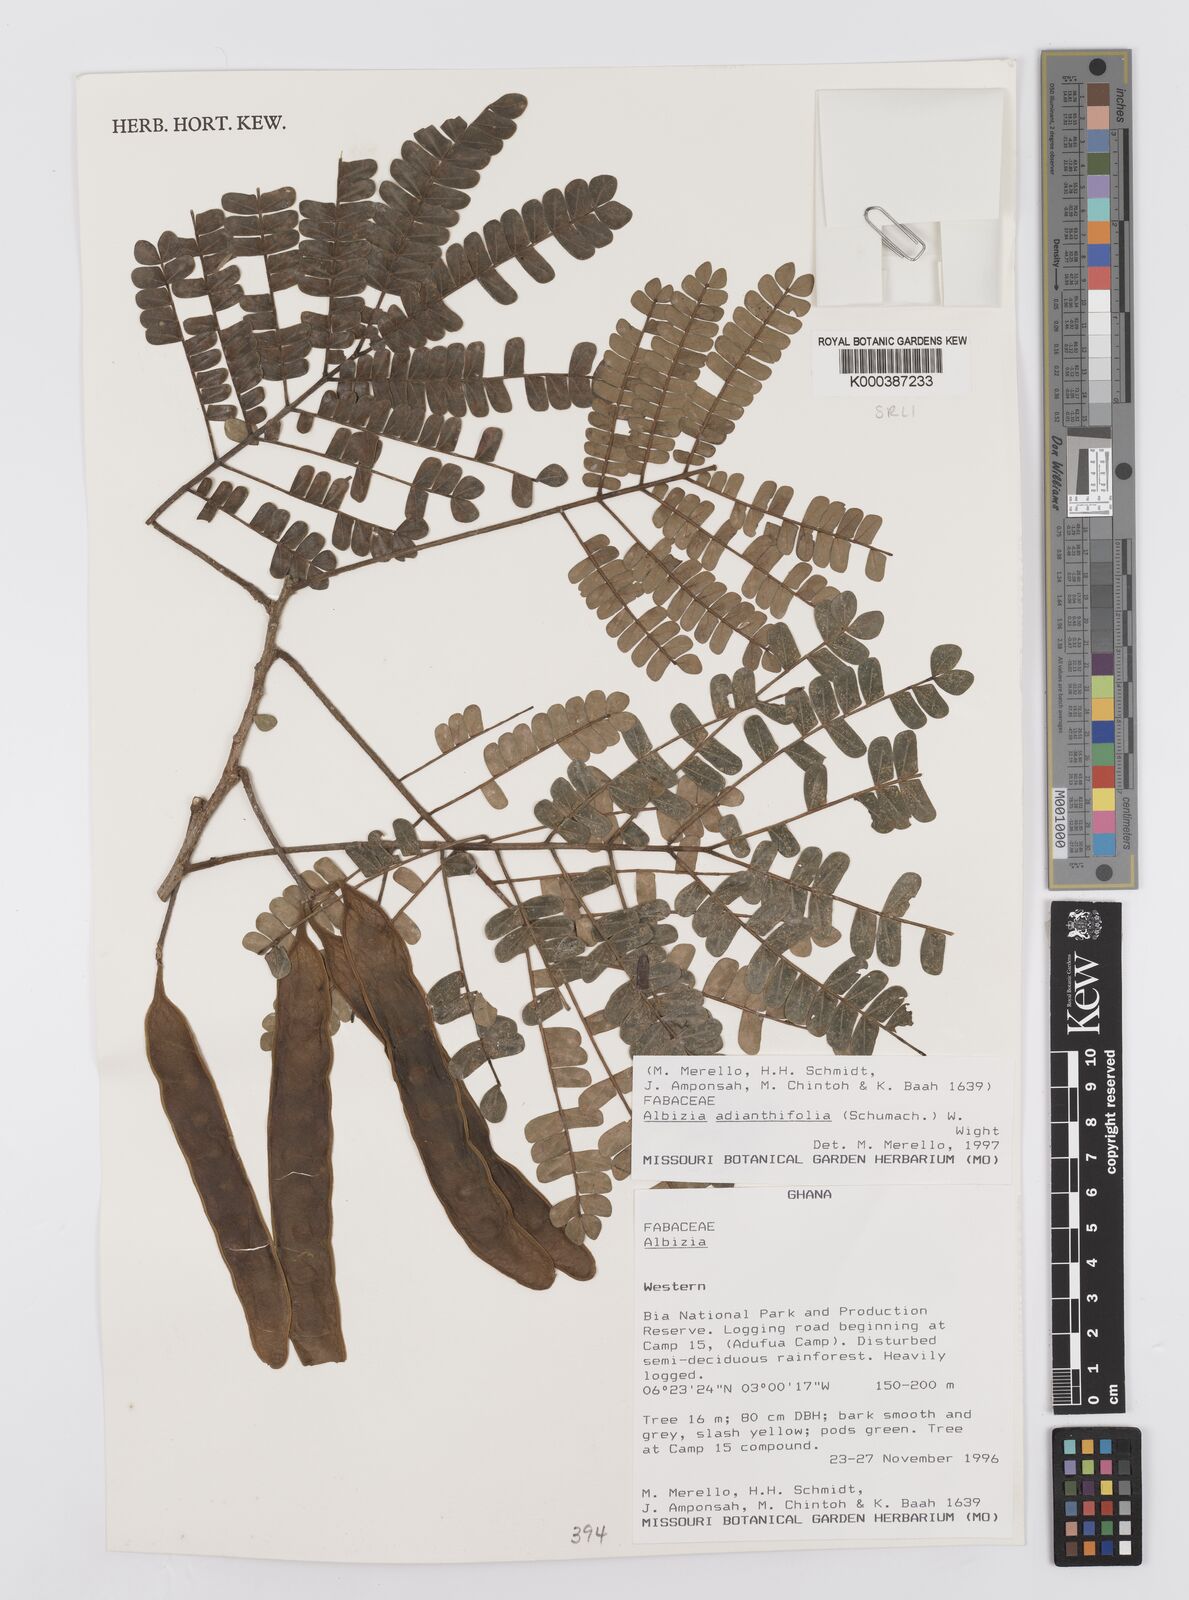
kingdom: Plantae
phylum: Tracheophyta
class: Magnoliopsida
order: Fabales
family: Fabaceae
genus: Albizia
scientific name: Albizia adianthifolia
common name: West african albizia
